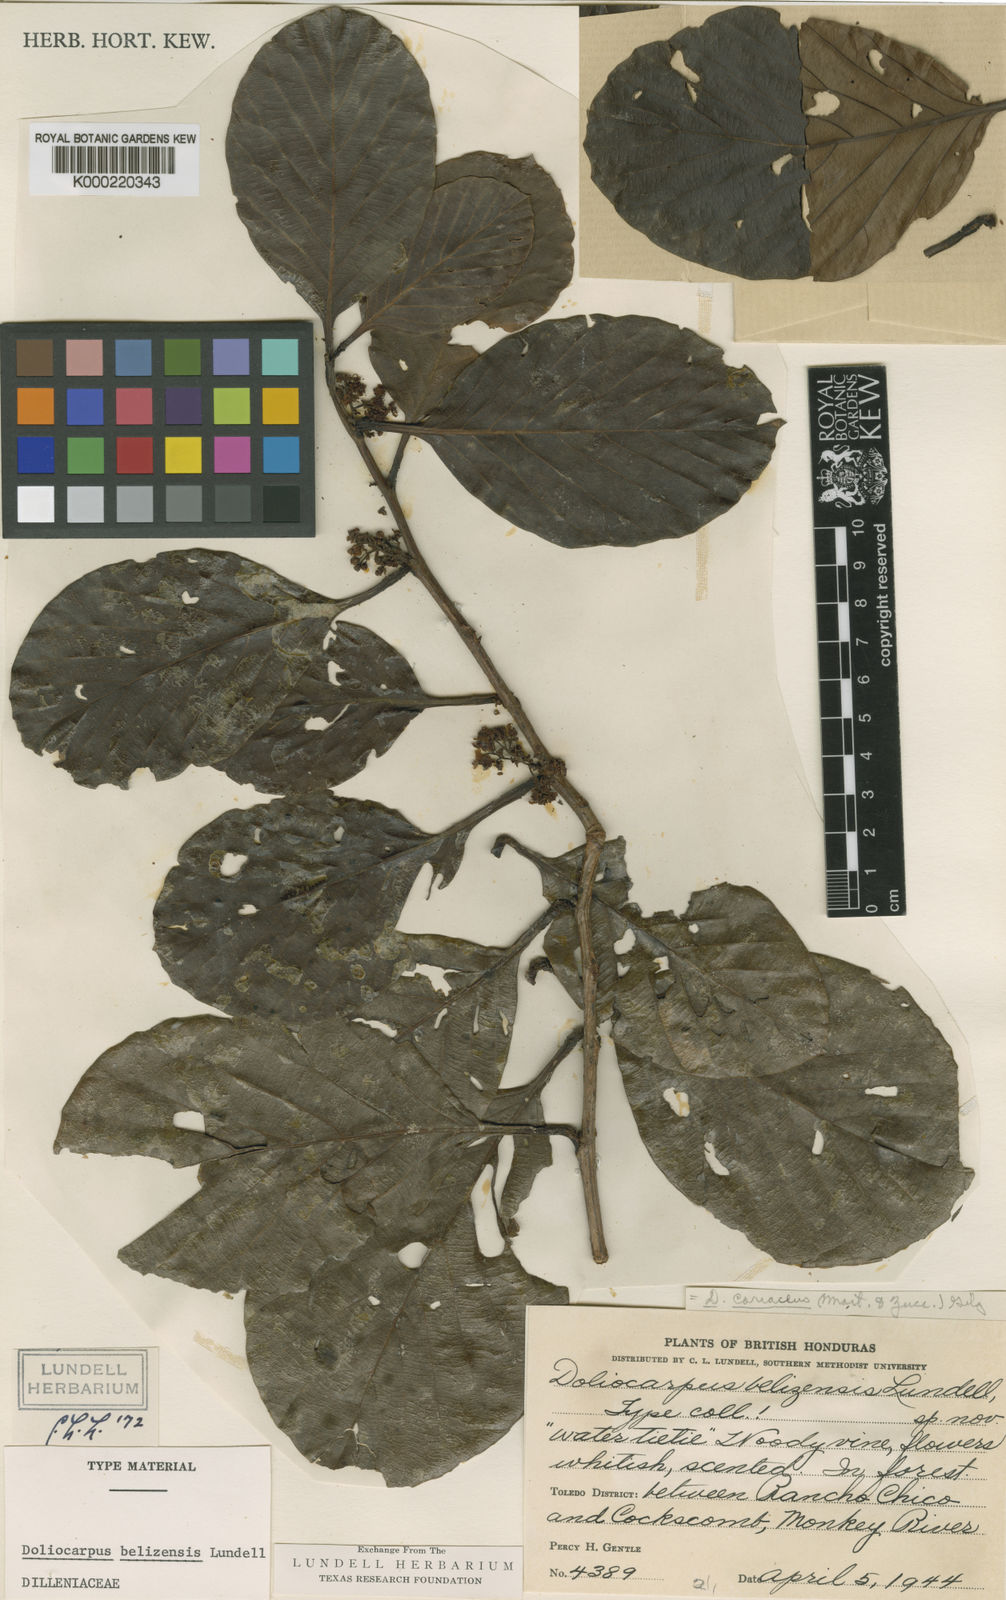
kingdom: Plantae
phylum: Tracheophyta
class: Magnoliopsida
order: Dilleniales
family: Dilleniaceae
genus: Pinzona
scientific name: Pinzona coriacea
